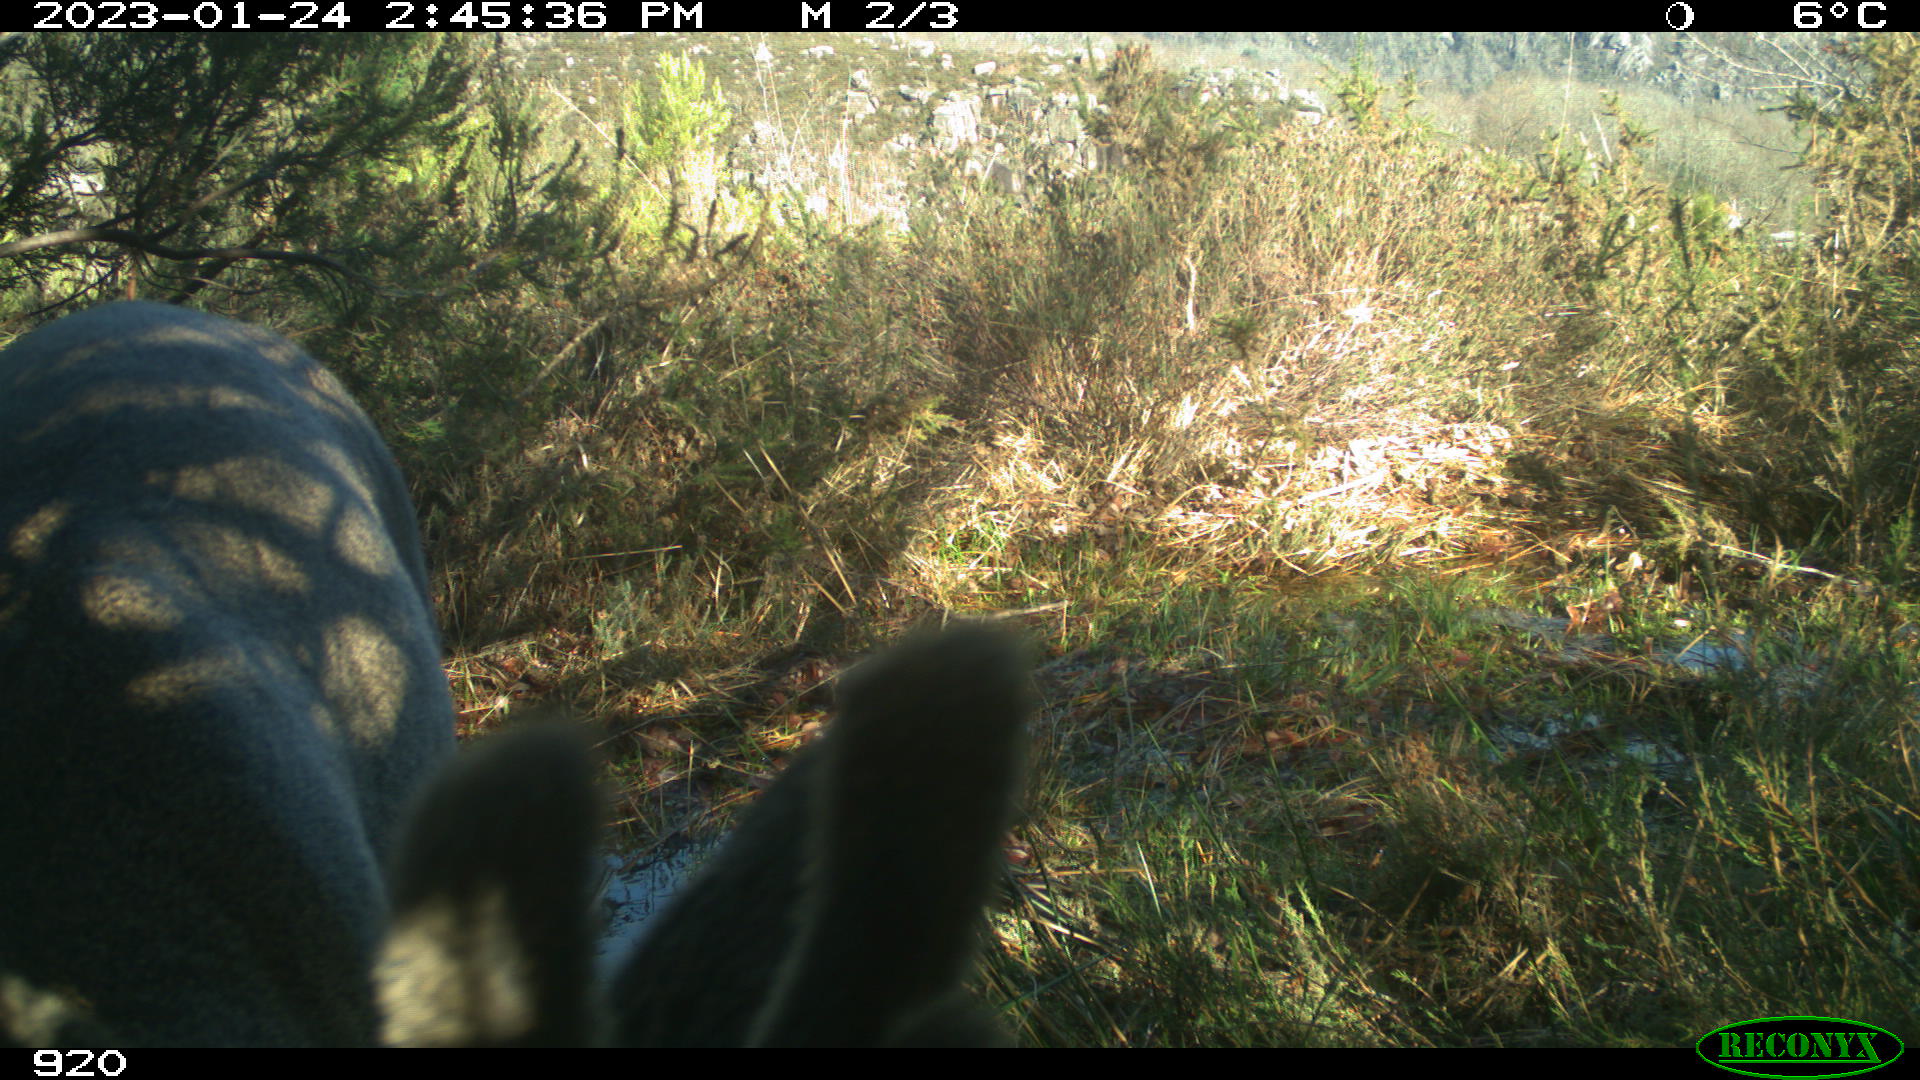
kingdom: Animalia
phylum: Chordata
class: Mammalia
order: Artiodactyla
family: Cervidae
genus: Capreolus
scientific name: Capreolus capreolus
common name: Western roe deer
